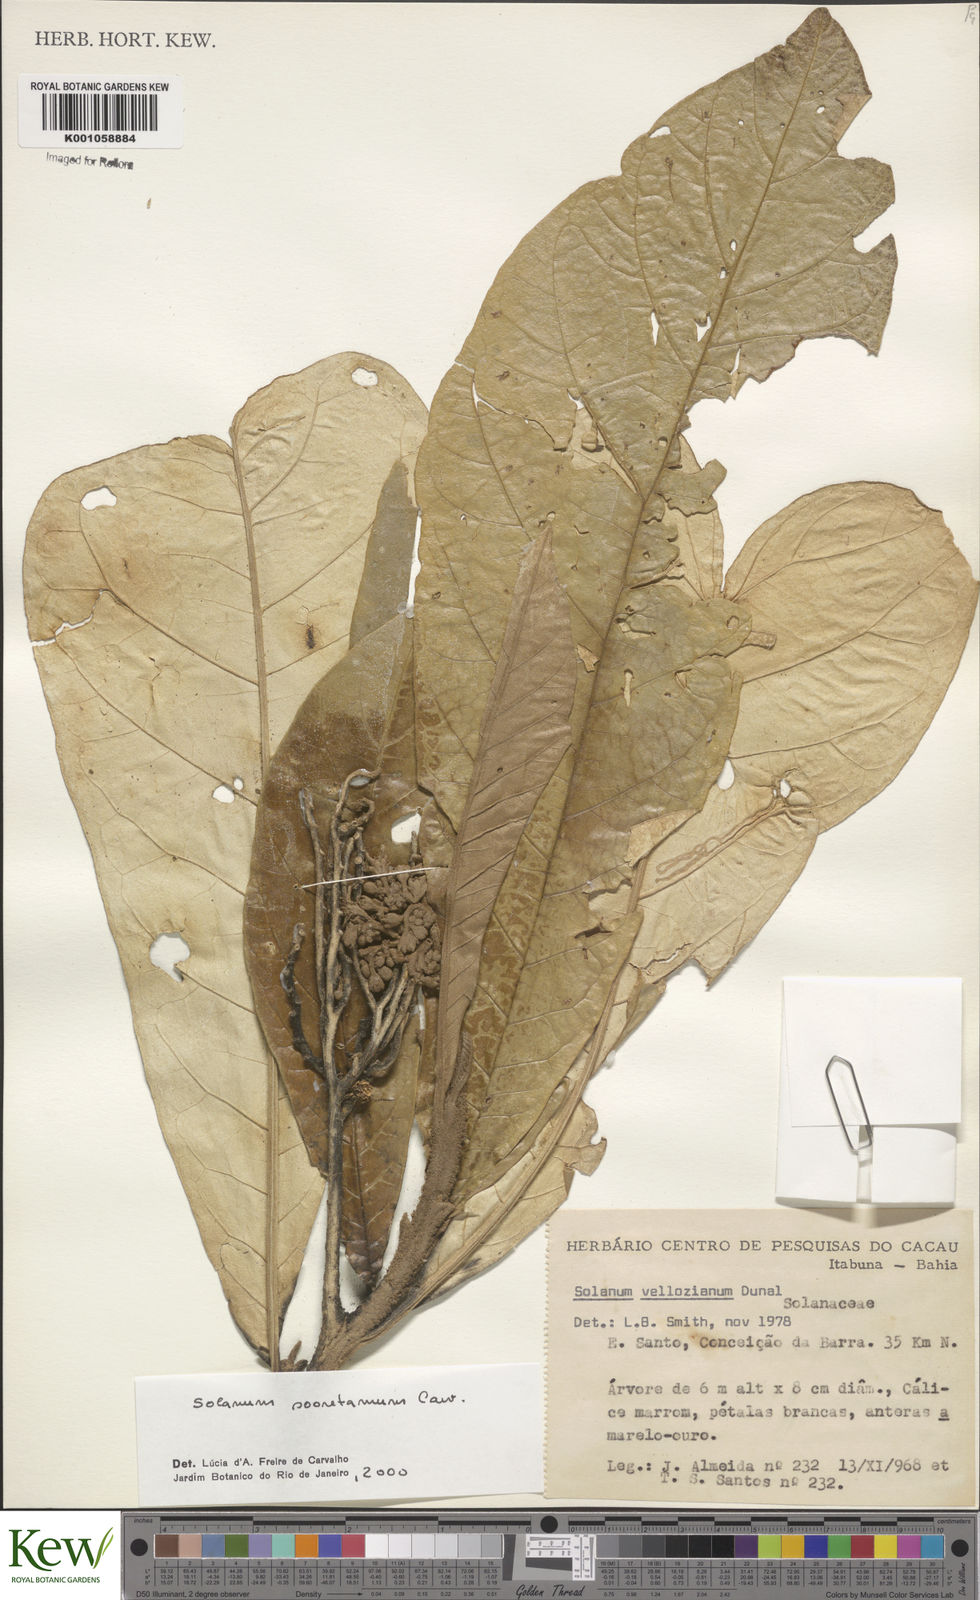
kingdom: Plantae
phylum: Tracheophyta
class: Magnoliopsida
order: Solanales
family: Solanaceae
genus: Solanum
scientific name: Solanum vellozianum
